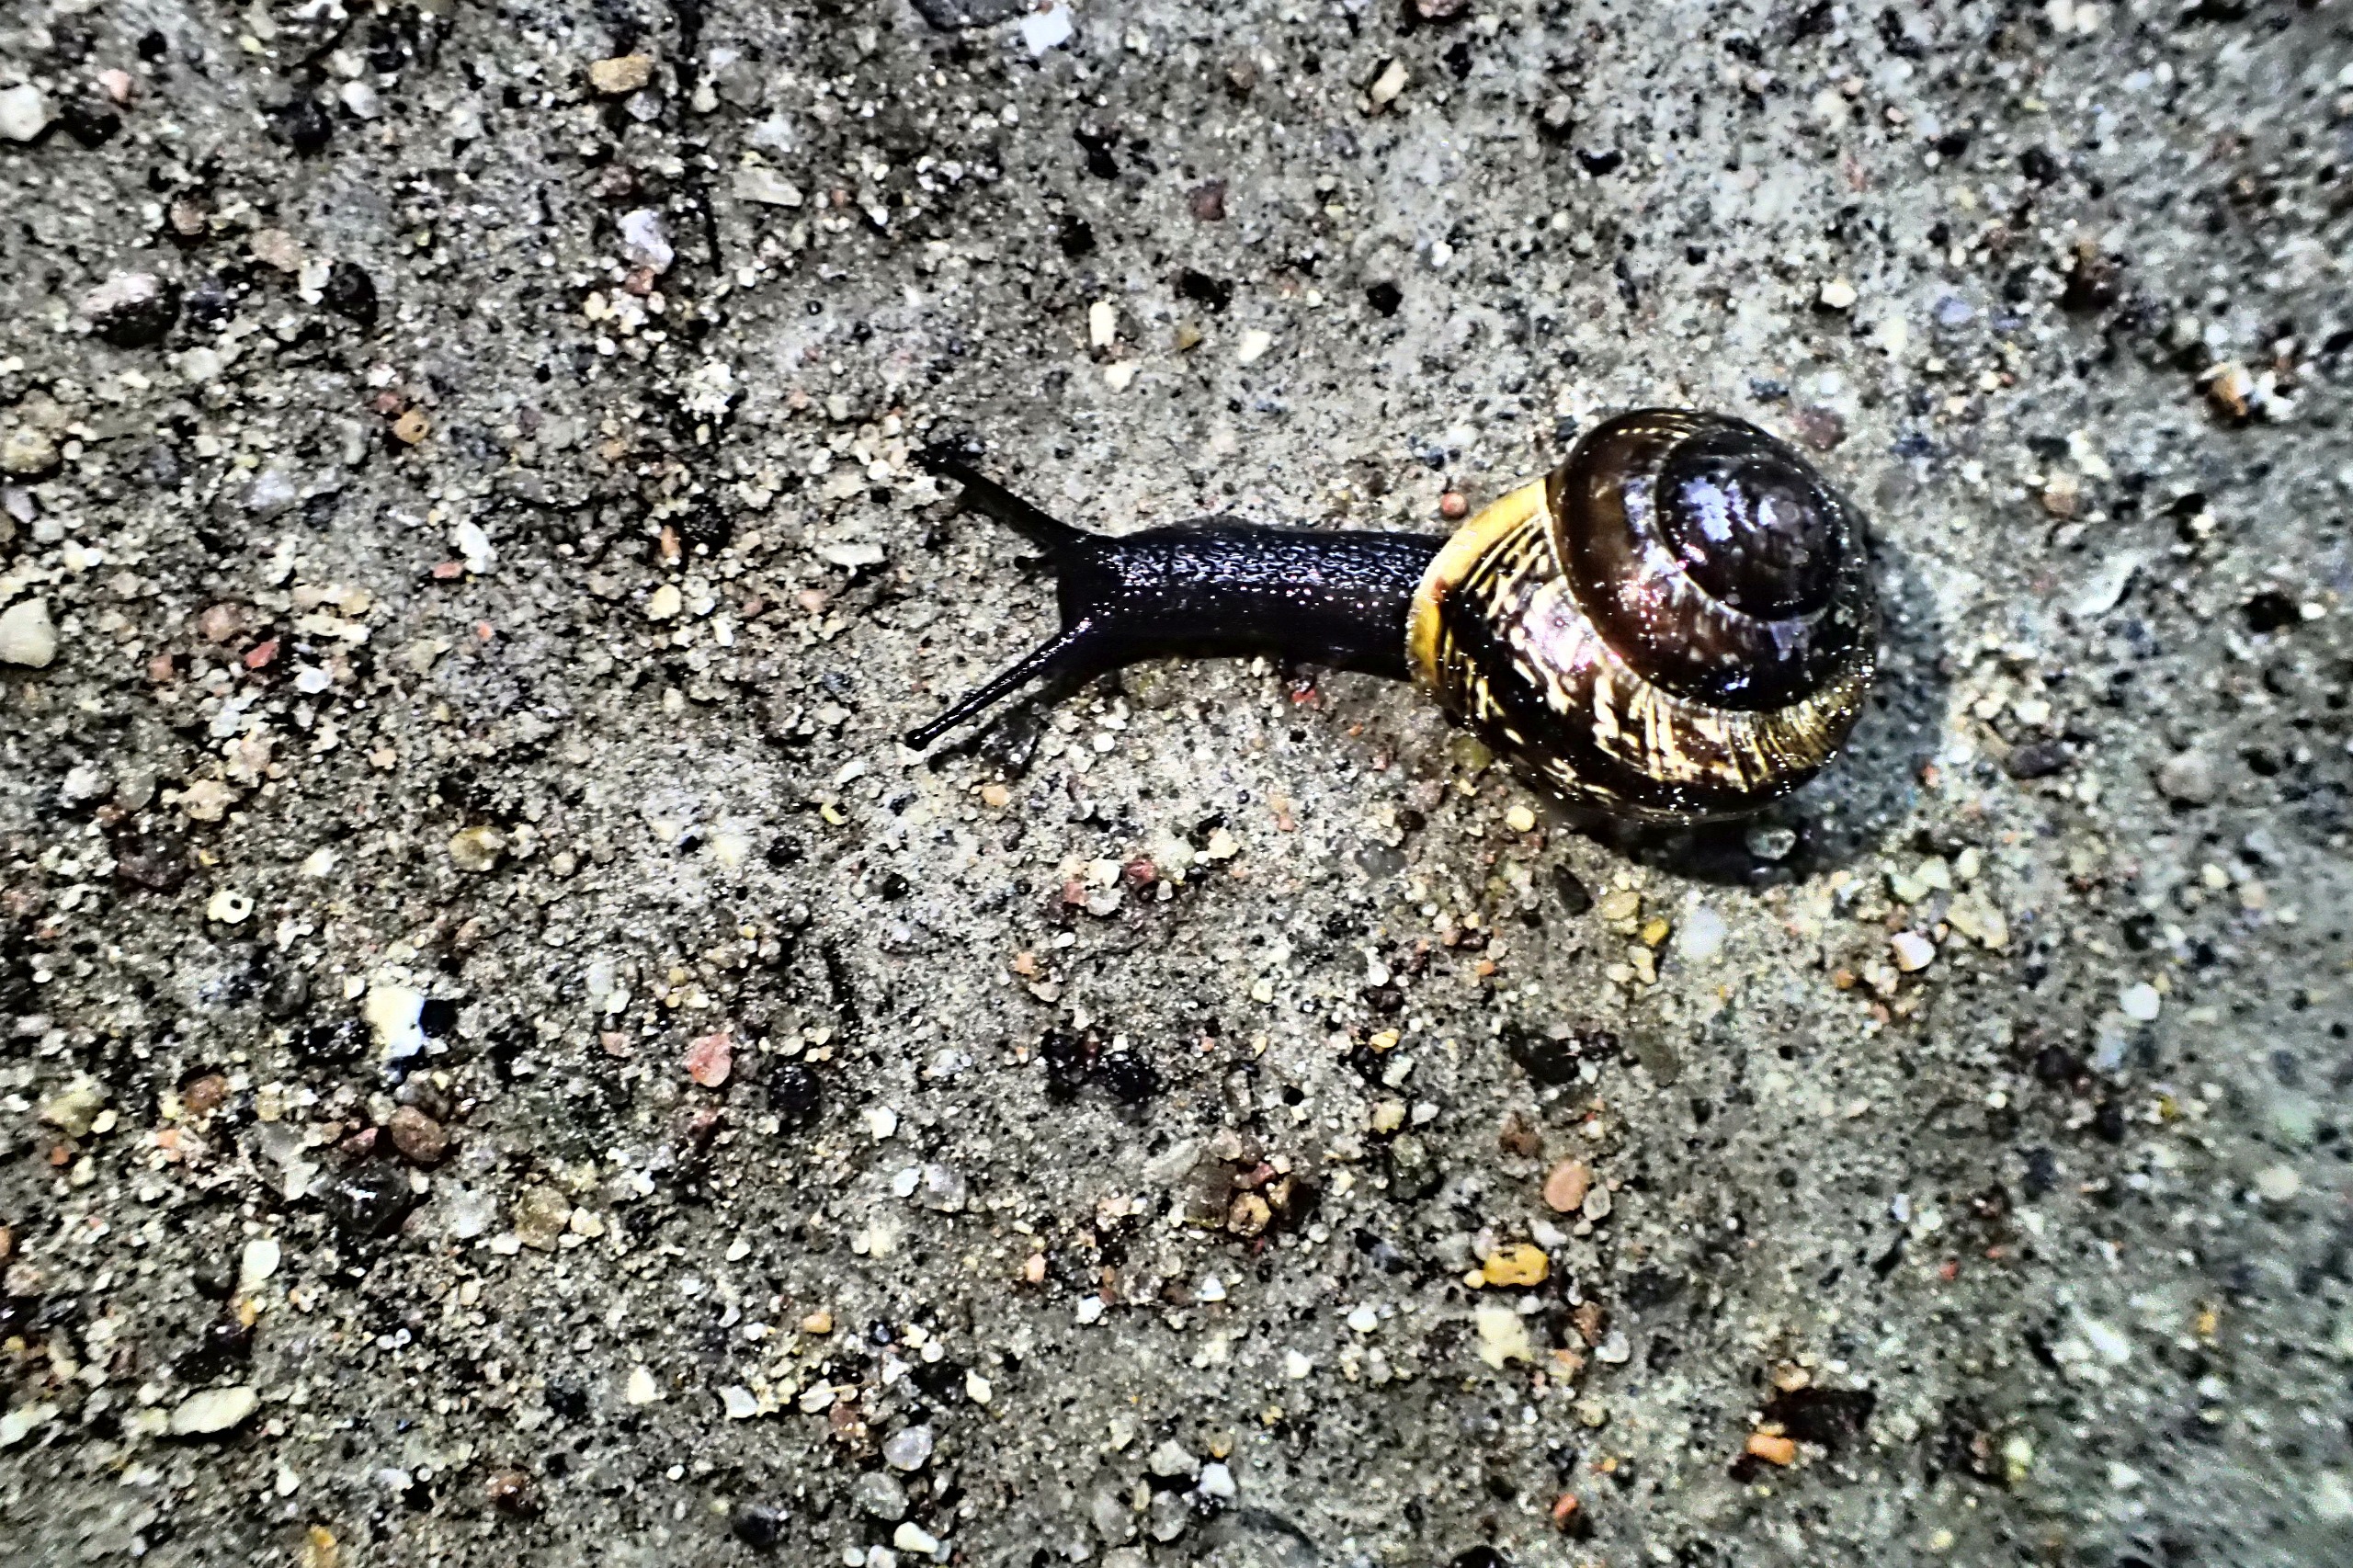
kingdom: Animalia
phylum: Mollusca
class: Gastropoda
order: Stylommatophora
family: Helicidae
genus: Arianta
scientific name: Arianta arbustorum
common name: Kratsnegl
